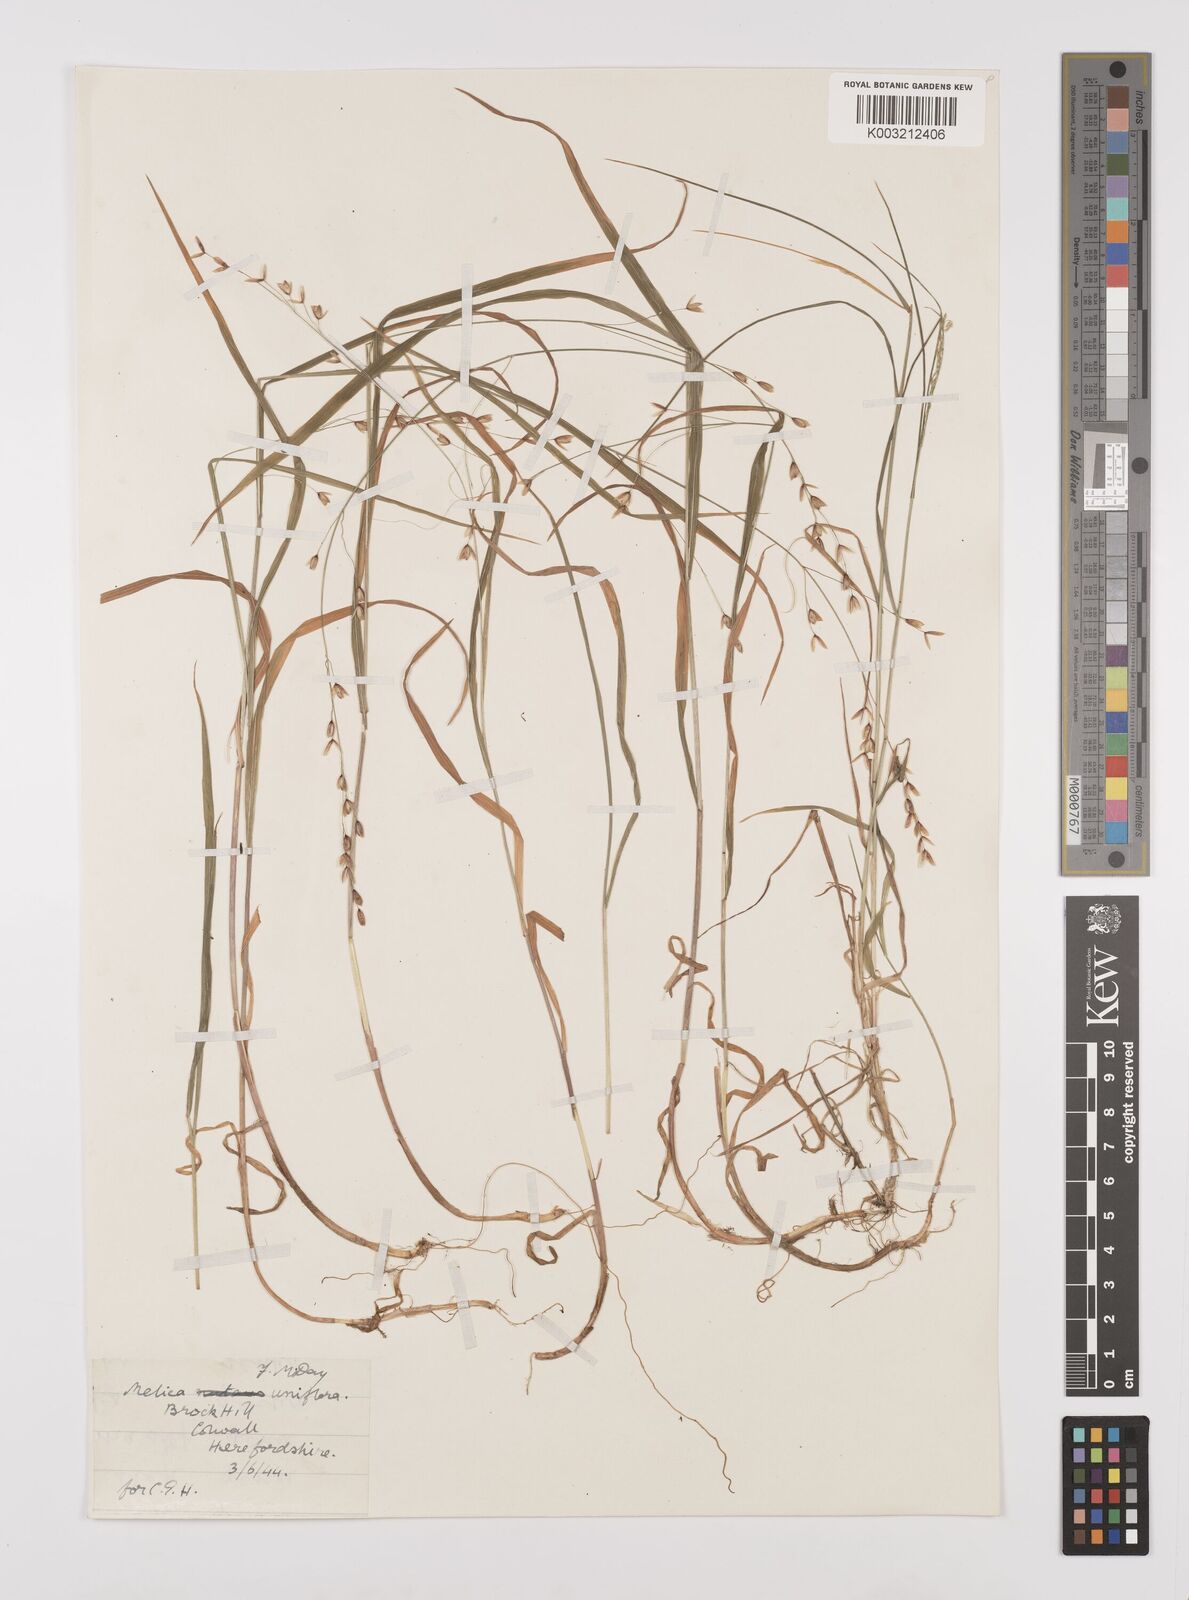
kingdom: Plantae
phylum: Tracheophyta
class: Liliopsida
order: Poales
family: Poaceae
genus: Melica
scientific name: Melica uniflora
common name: Wood melick
